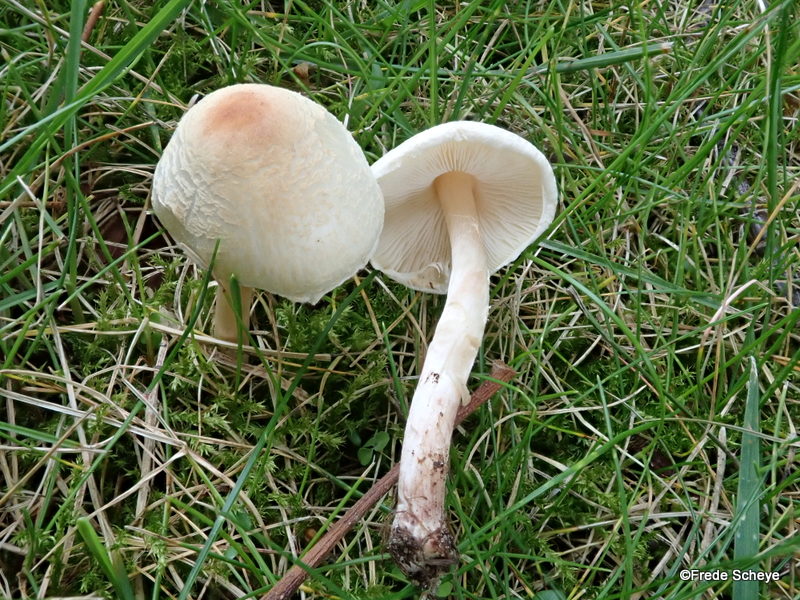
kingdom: Fungi
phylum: Basidiomycota
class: Agaricomycetes
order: Agaricales
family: Agaricaceae
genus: Lepiota
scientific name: Lepiota cristata
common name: stinkende parasolhat
